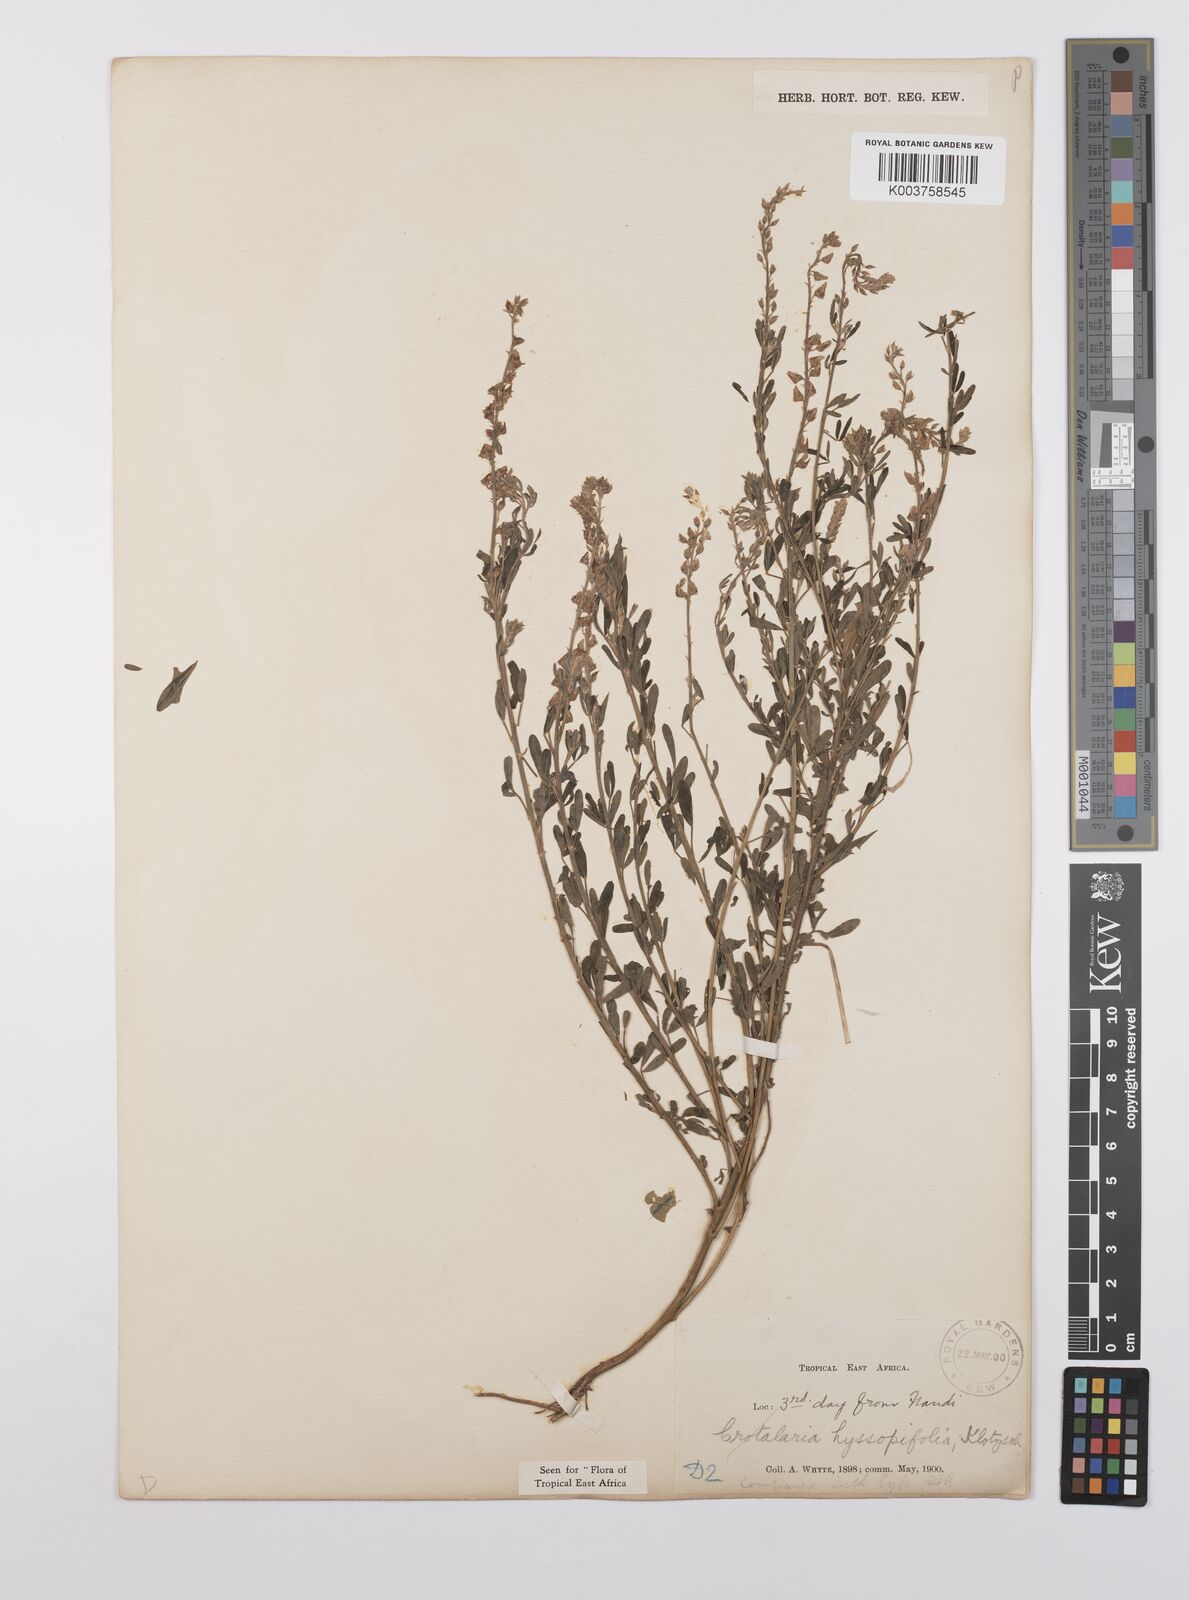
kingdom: Plantae
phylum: Tracheophyta
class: Magnoliopsida
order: Fabales
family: Fabaceae
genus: Crotalaria
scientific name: Crotalaria hyssopifolia
